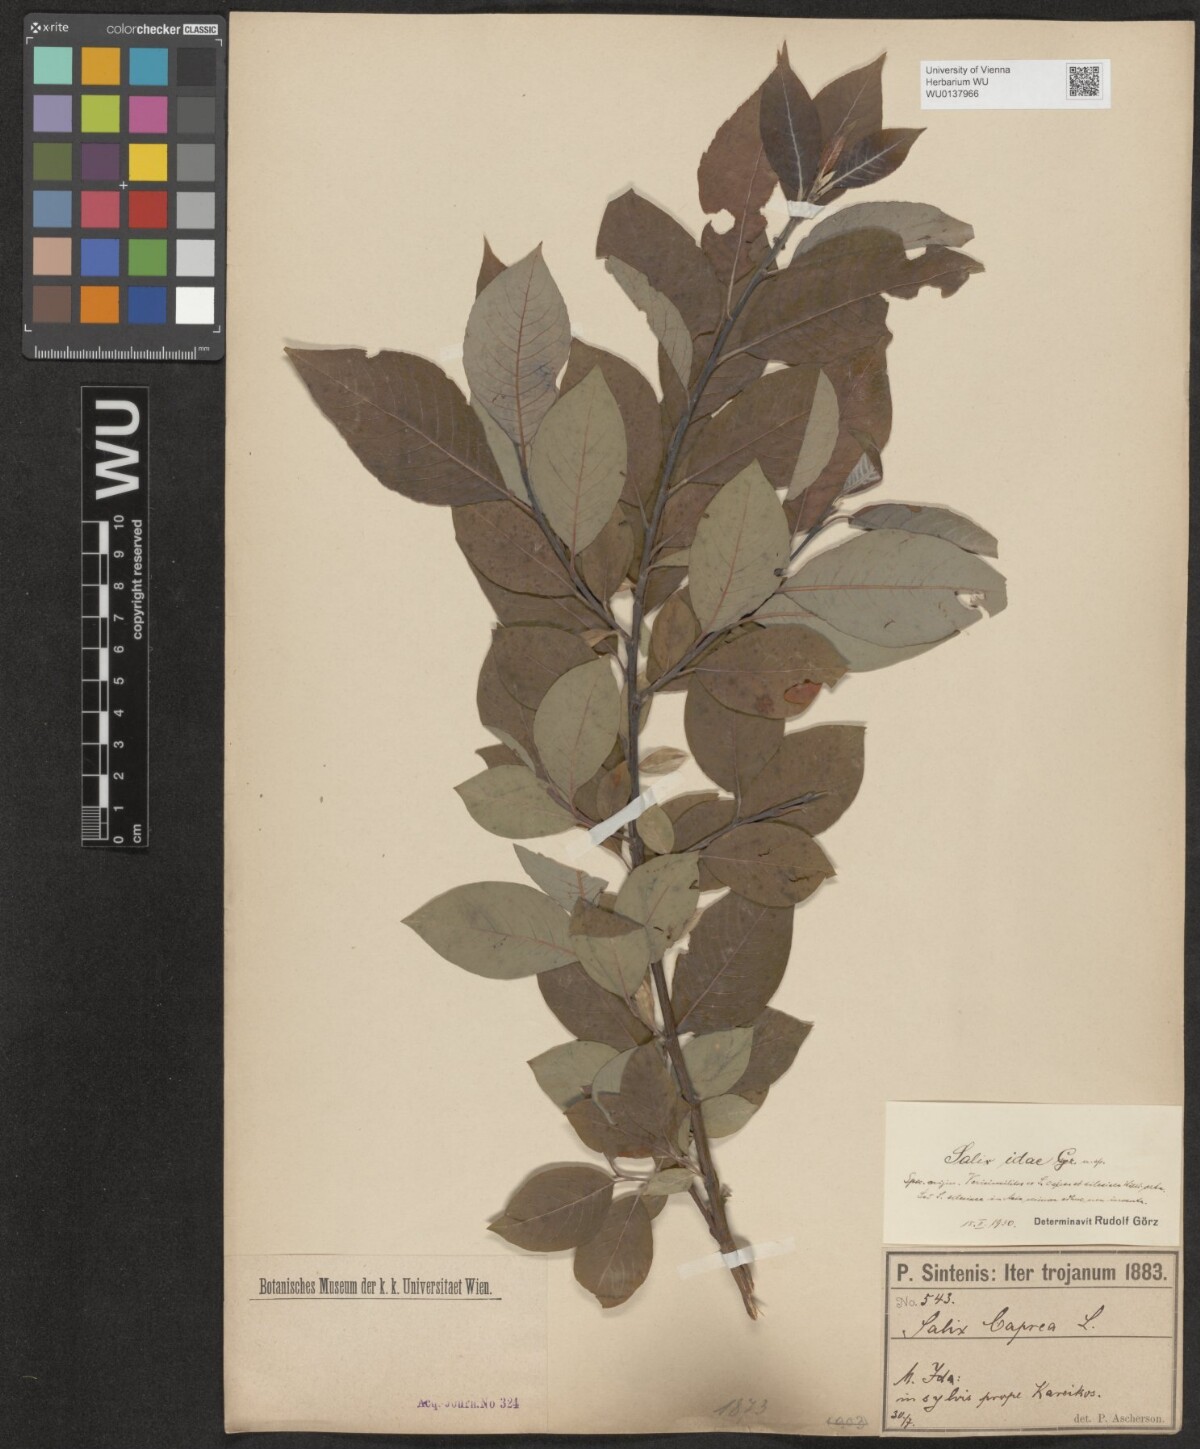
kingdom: Plantae
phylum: Tracheophyta
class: Magnoliopsida
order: Malpighiales
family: Salicaceae
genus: Salix
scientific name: Salix caprea
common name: Goat willow
